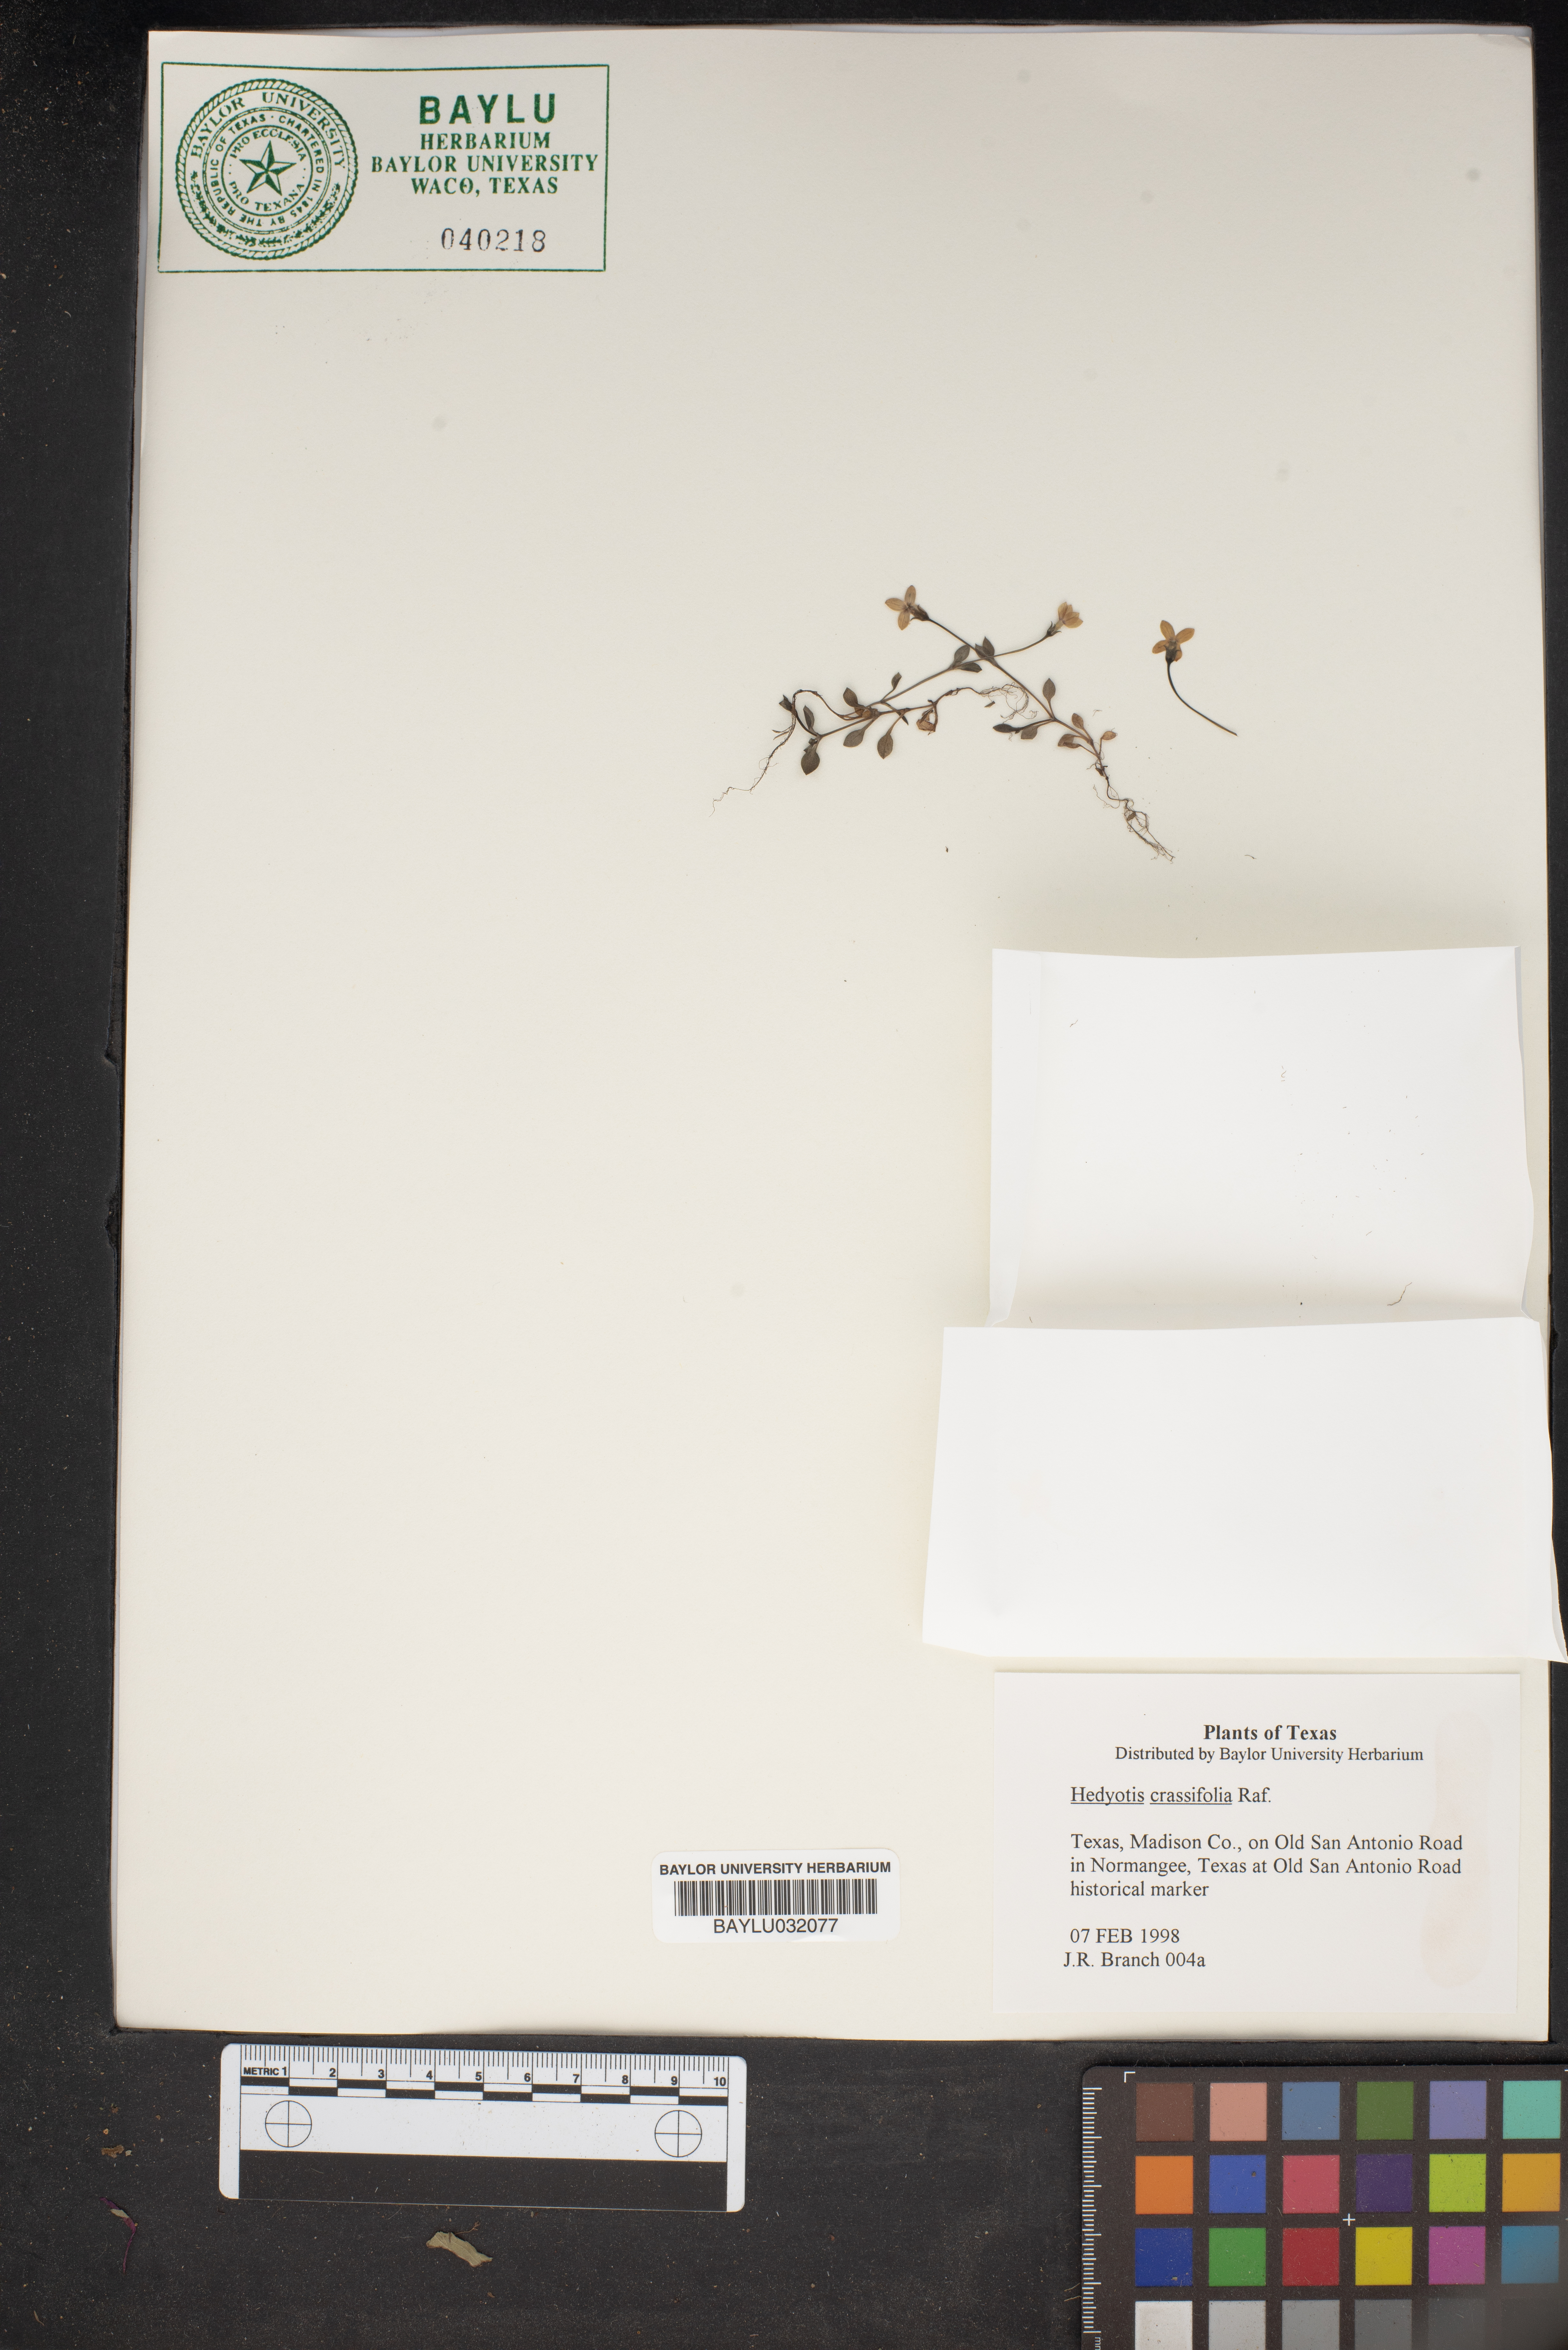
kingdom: Plantae
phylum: Tracheophyta
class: Magnoliopsida
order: Gentianales
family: Rubiaceae
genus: Houstonia
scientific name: Houstonia pusilla
